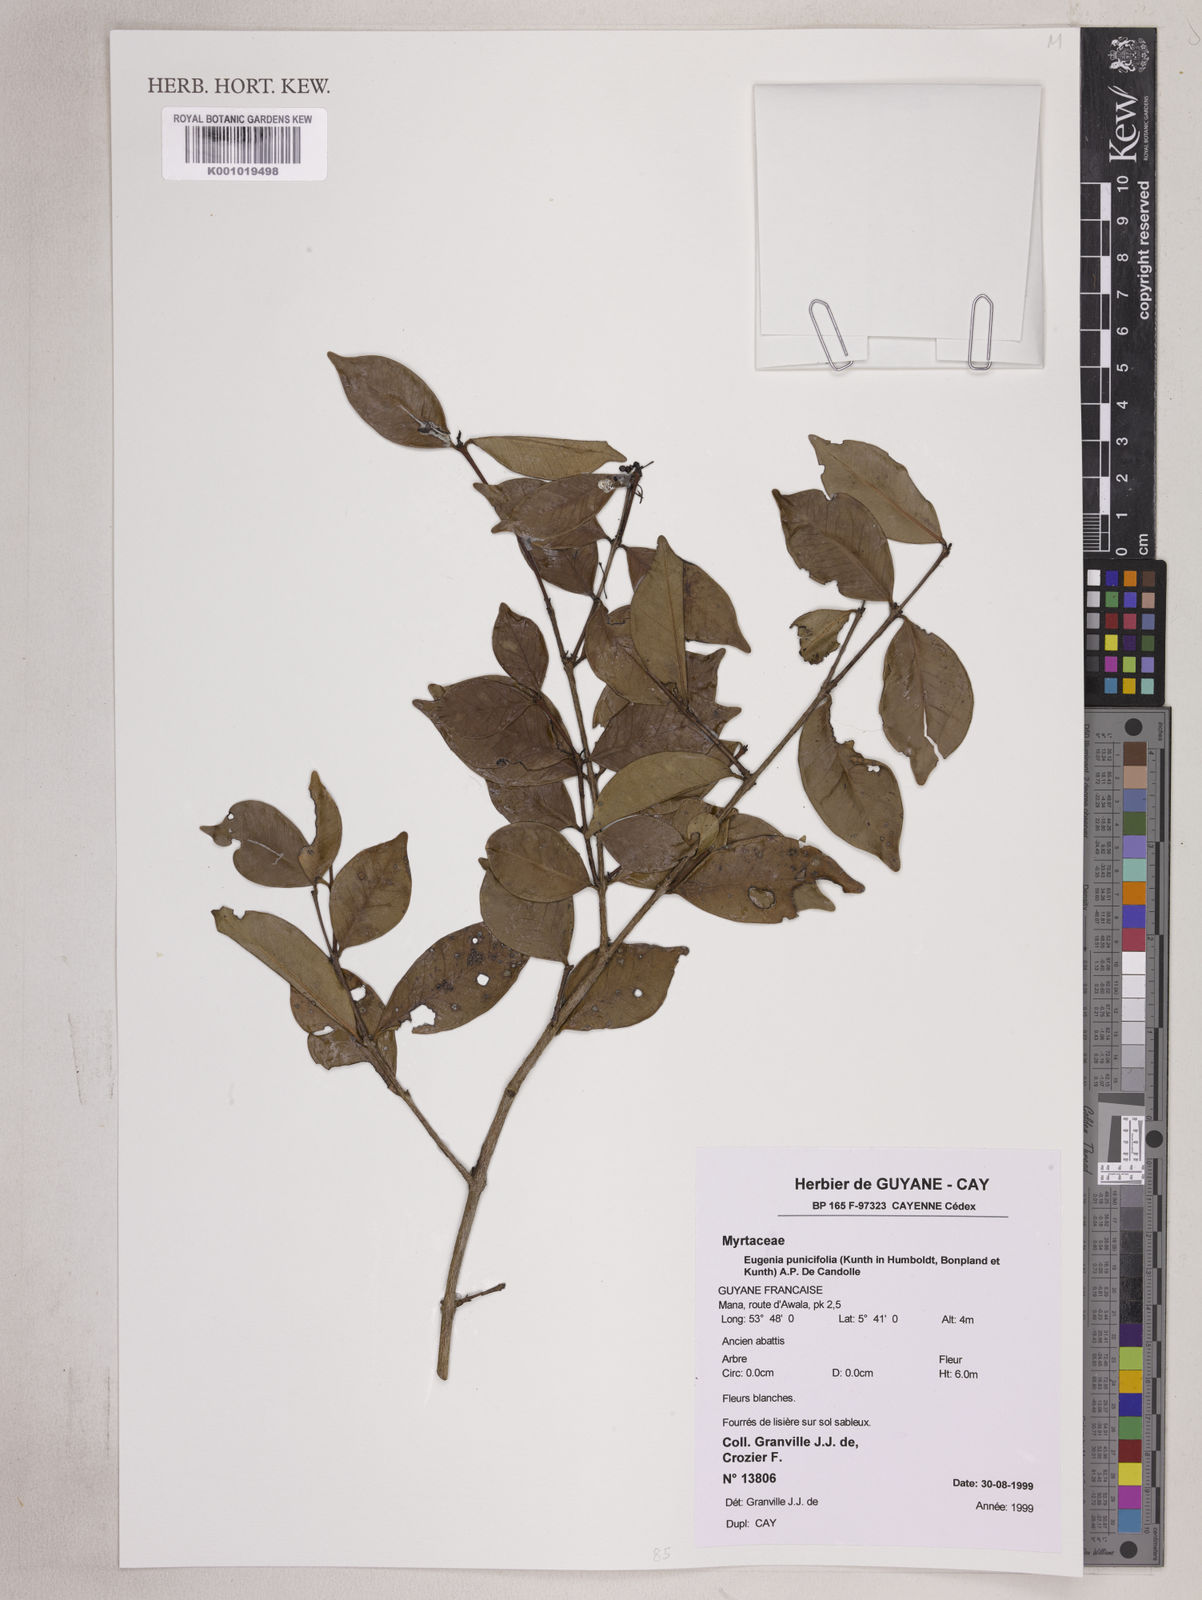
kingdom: Plantae
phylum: Tracheophyta
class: Magnoliopsida
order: Myrtales
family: Myrtaceae
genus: Eugenia
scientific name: Eugenia punicifolia
